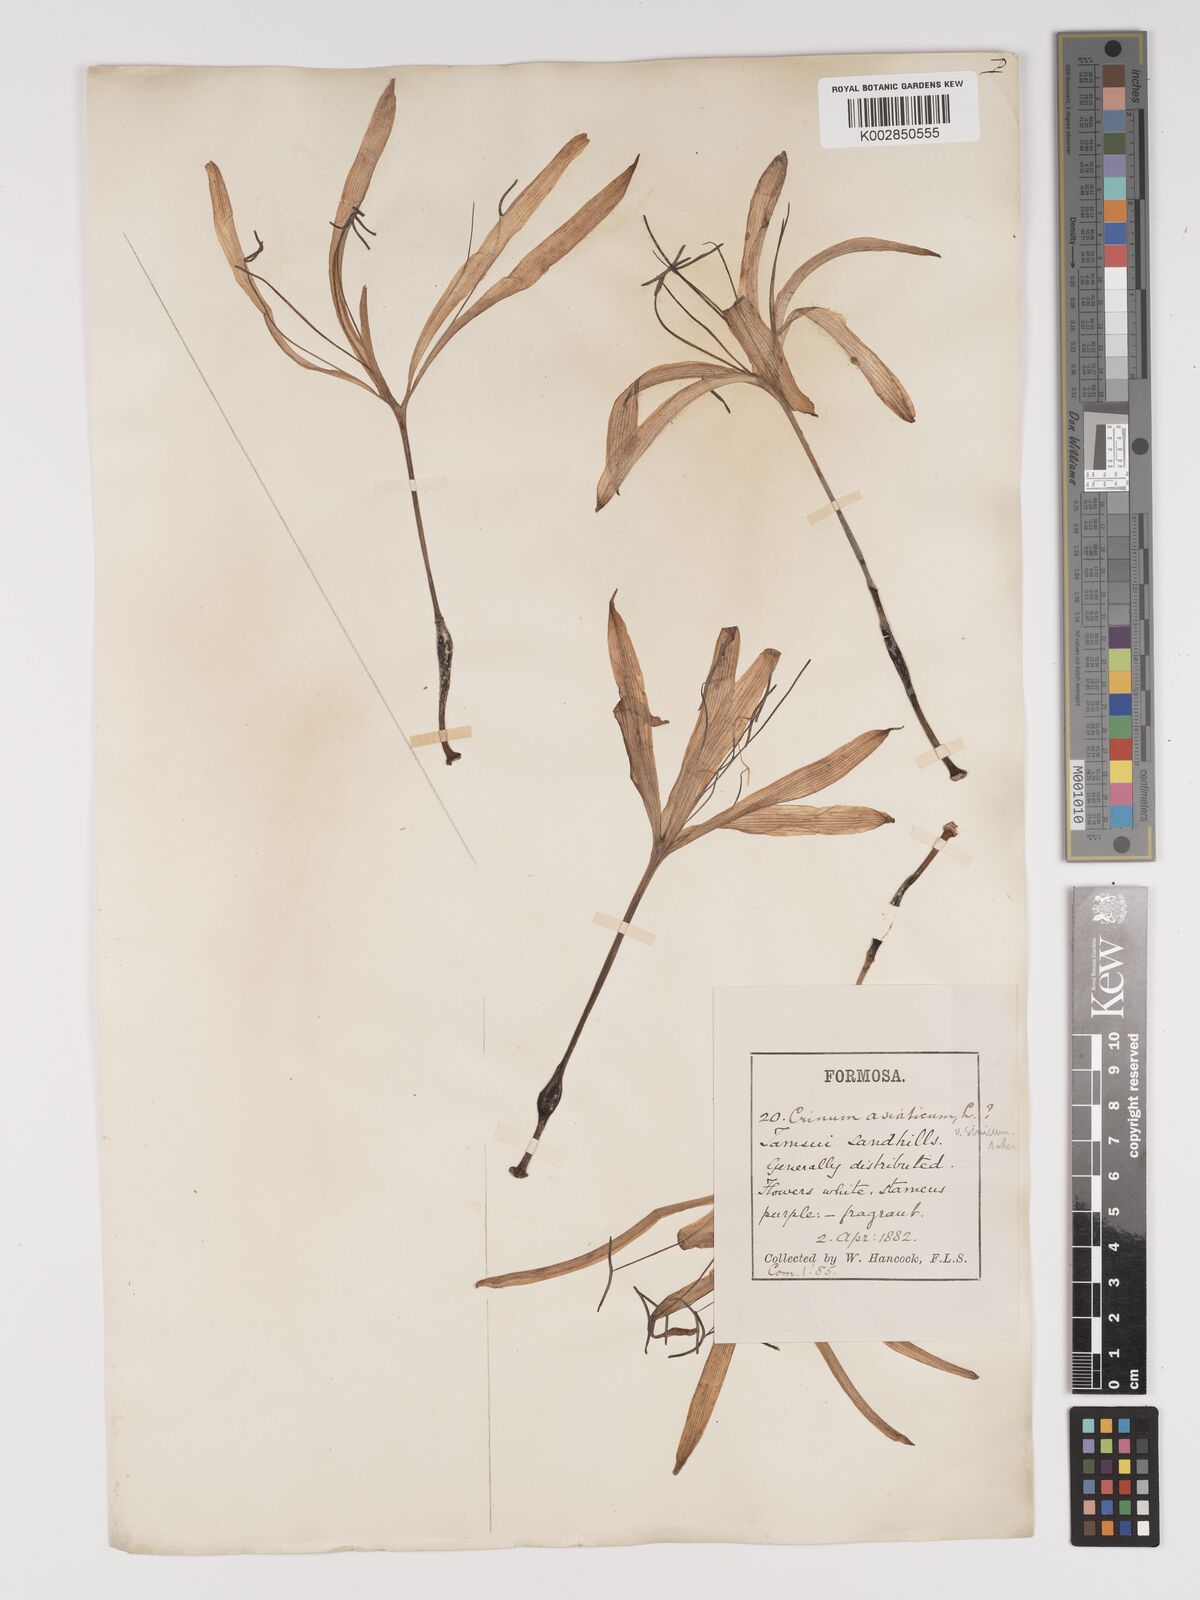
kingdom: Plantae
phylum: Tracheophyta
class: Liliopsida
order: Asparagales
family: Amaryllidaceae
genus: Crinum
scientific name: Crinum asiaticum
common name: Poisonbulb
